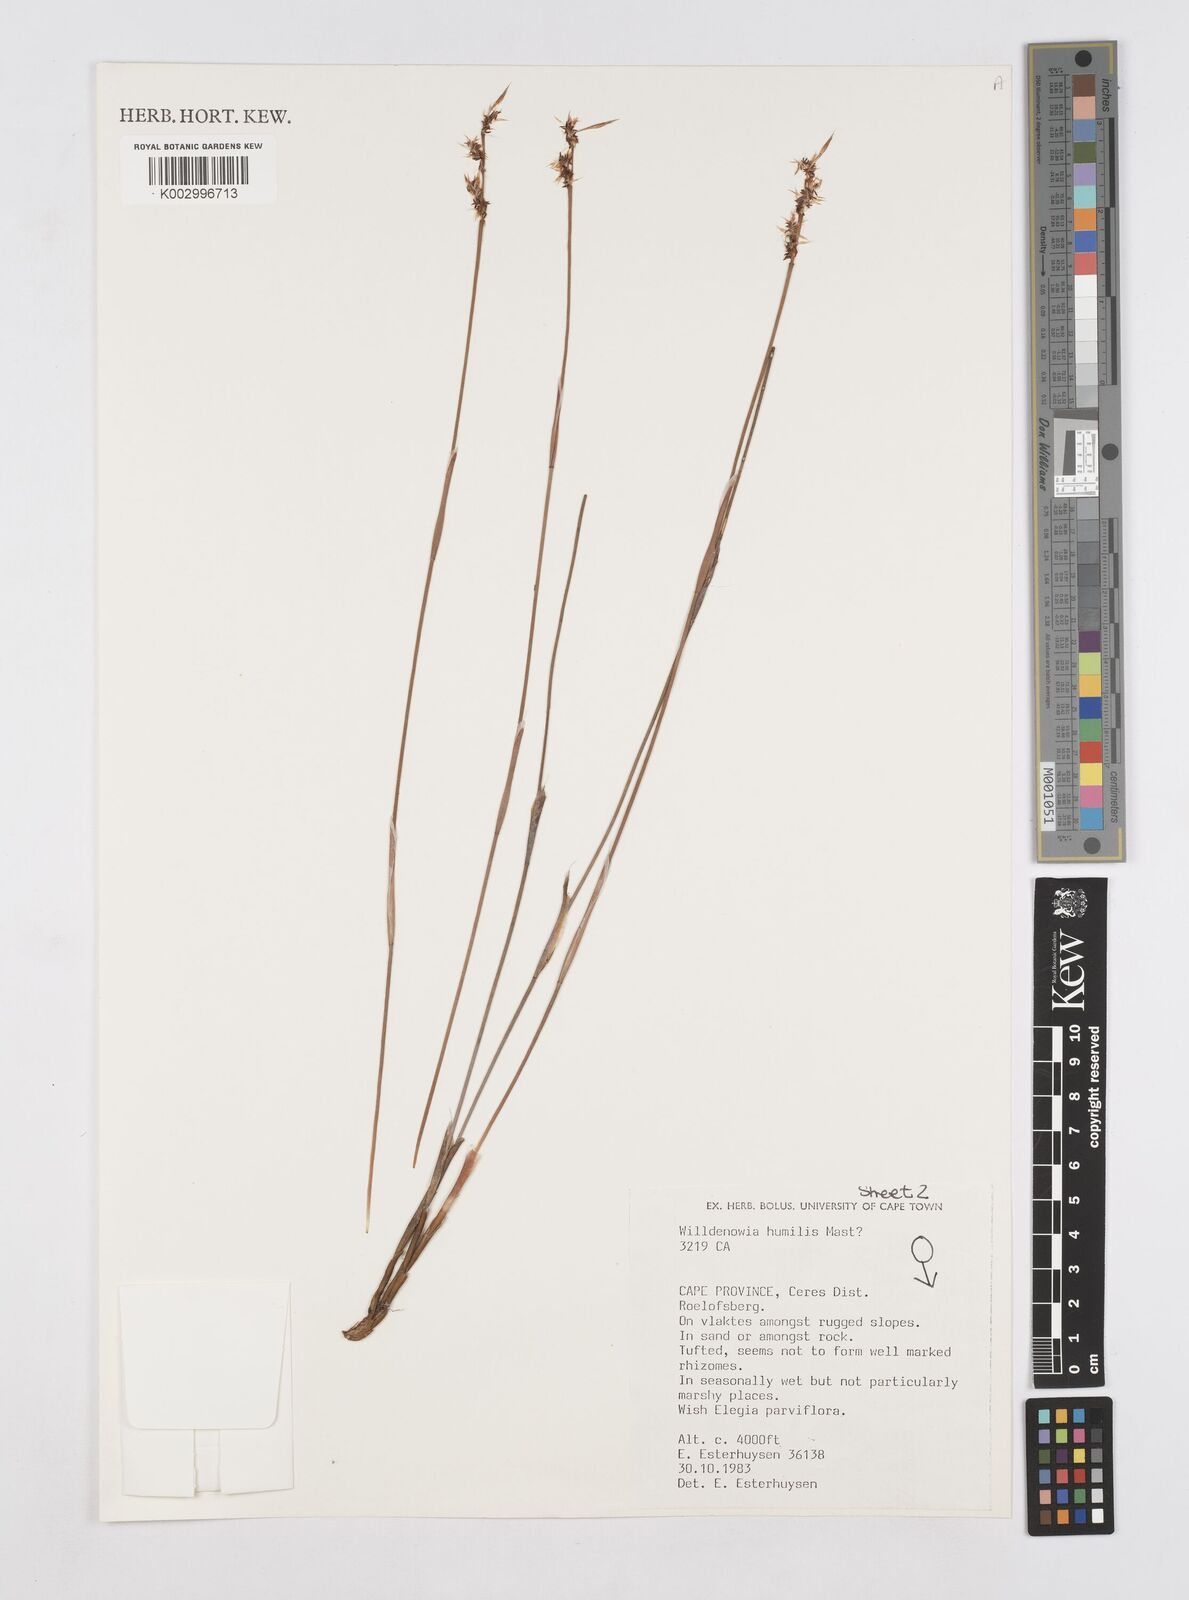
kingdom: Plantae
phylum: Tracheophyta
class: Liliopsida
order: Poales
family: Restionaceae
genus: Willdenowia
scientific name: Willdenowia humilis
